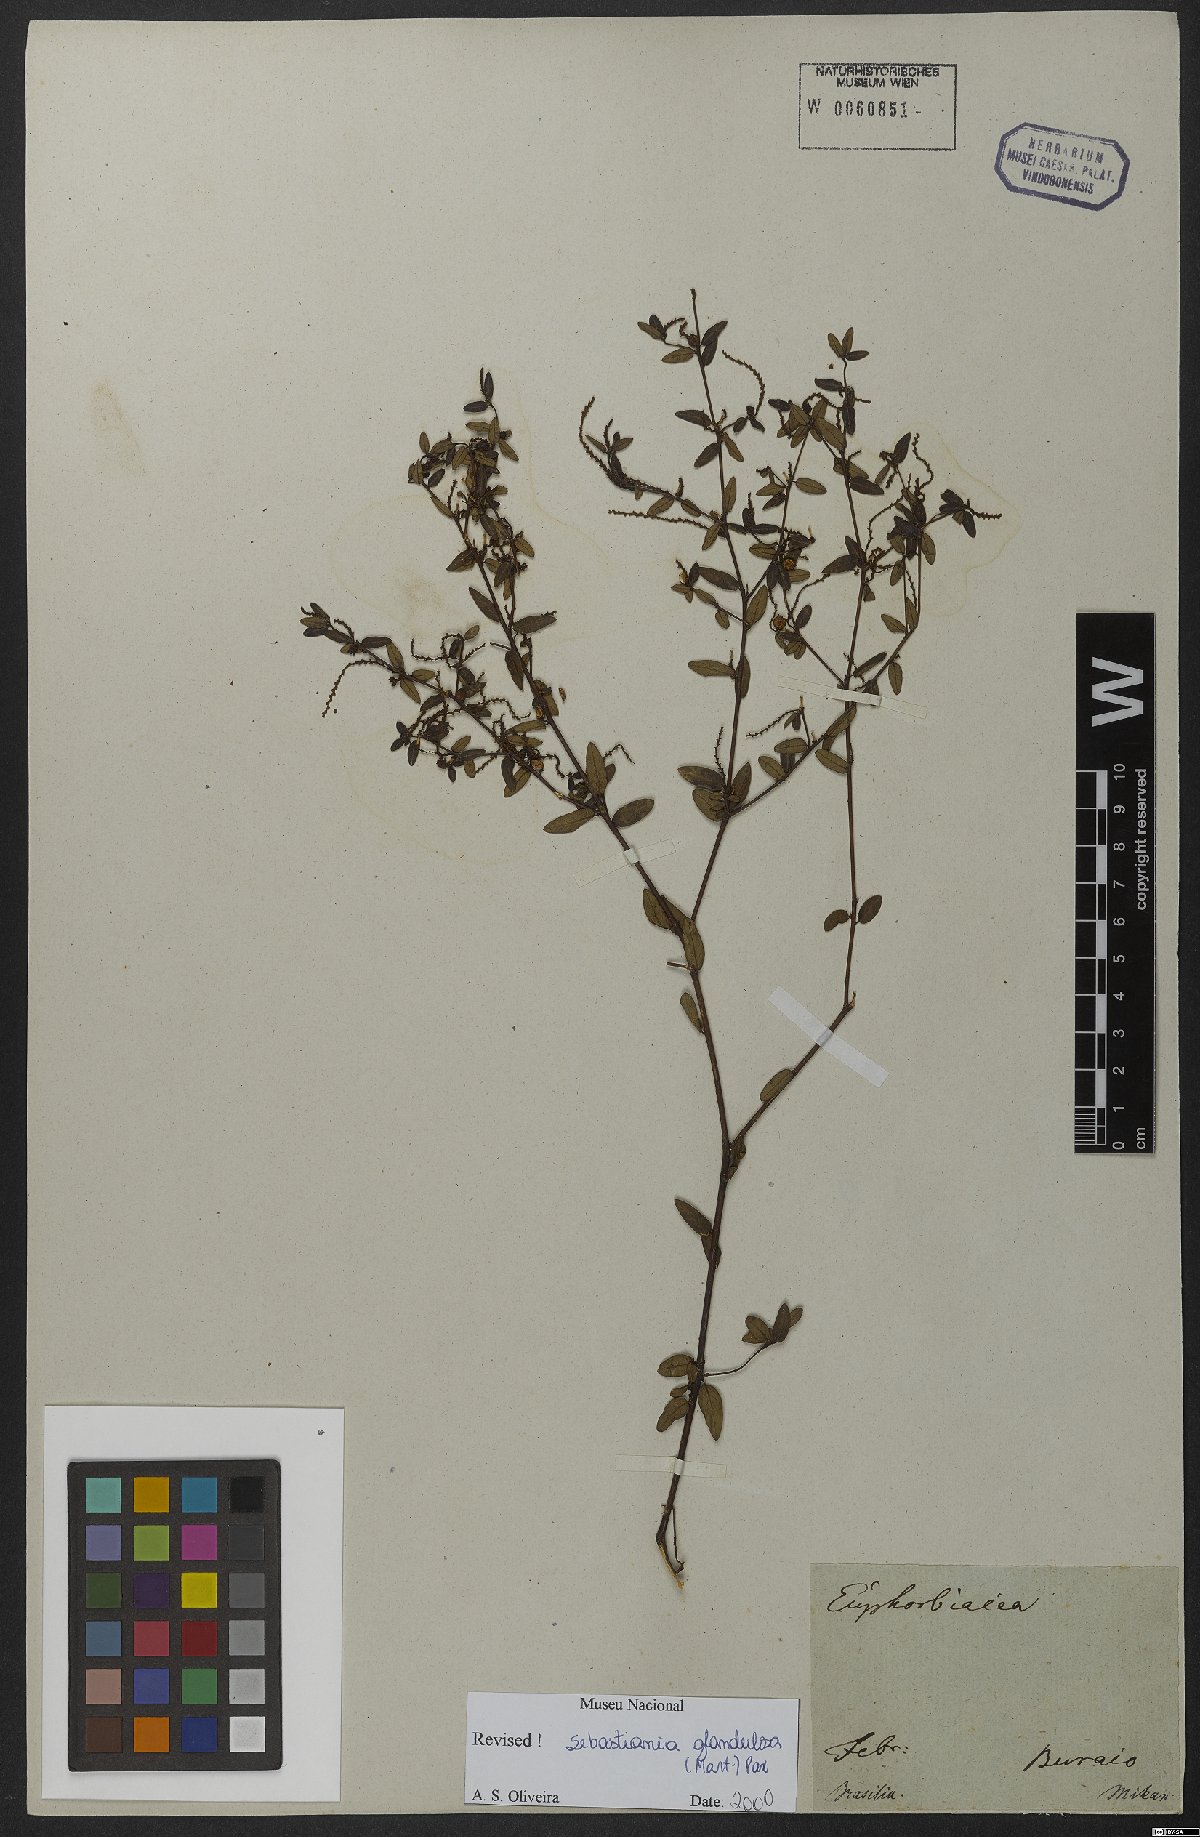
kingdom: Plantae
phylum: Tracheophyta
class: Magnoliopsida
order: Malpighiales
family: Euphorbiaceae
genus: Microstachys
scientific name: Microstachys corniculata
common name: Hato tejas
